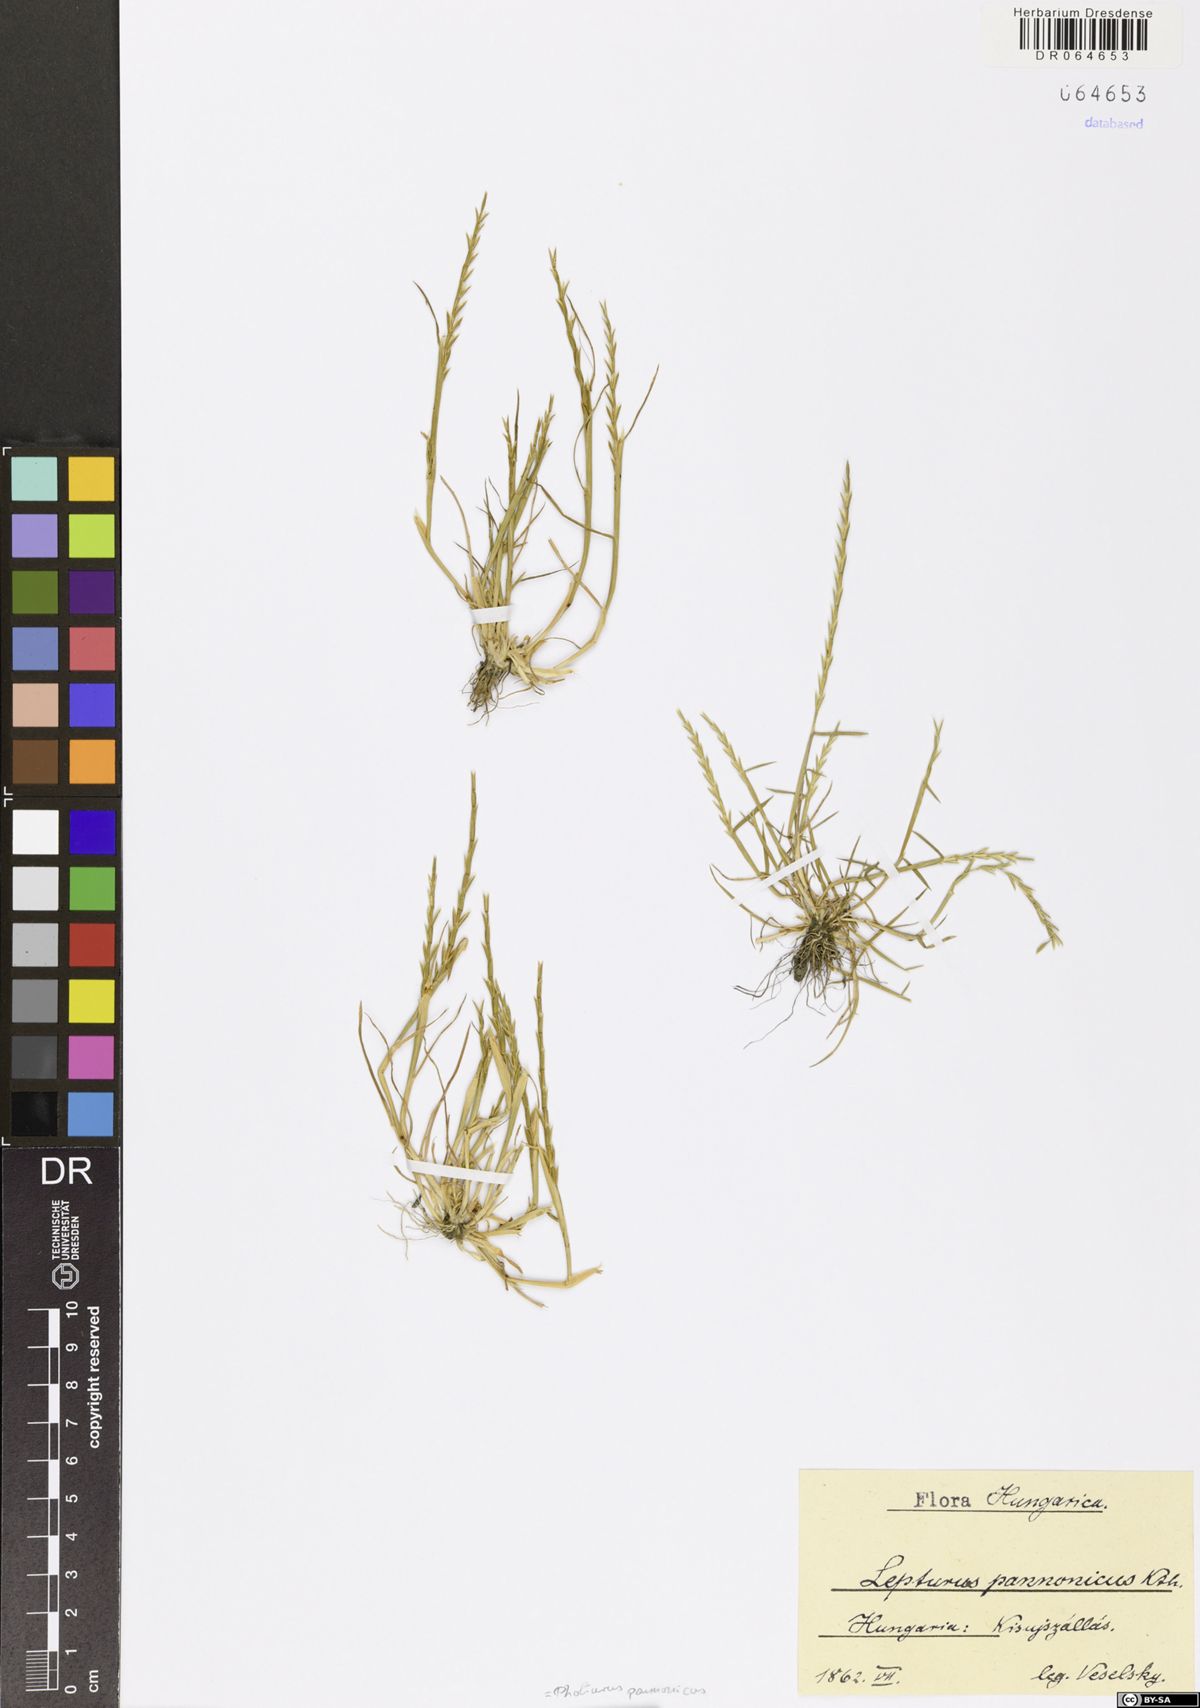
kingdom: Plantae
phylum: Tracheophyta
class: Liliopsida
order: Poales
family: Poaceae
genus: Pholiurus
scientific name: Pholiurus pannonicus
